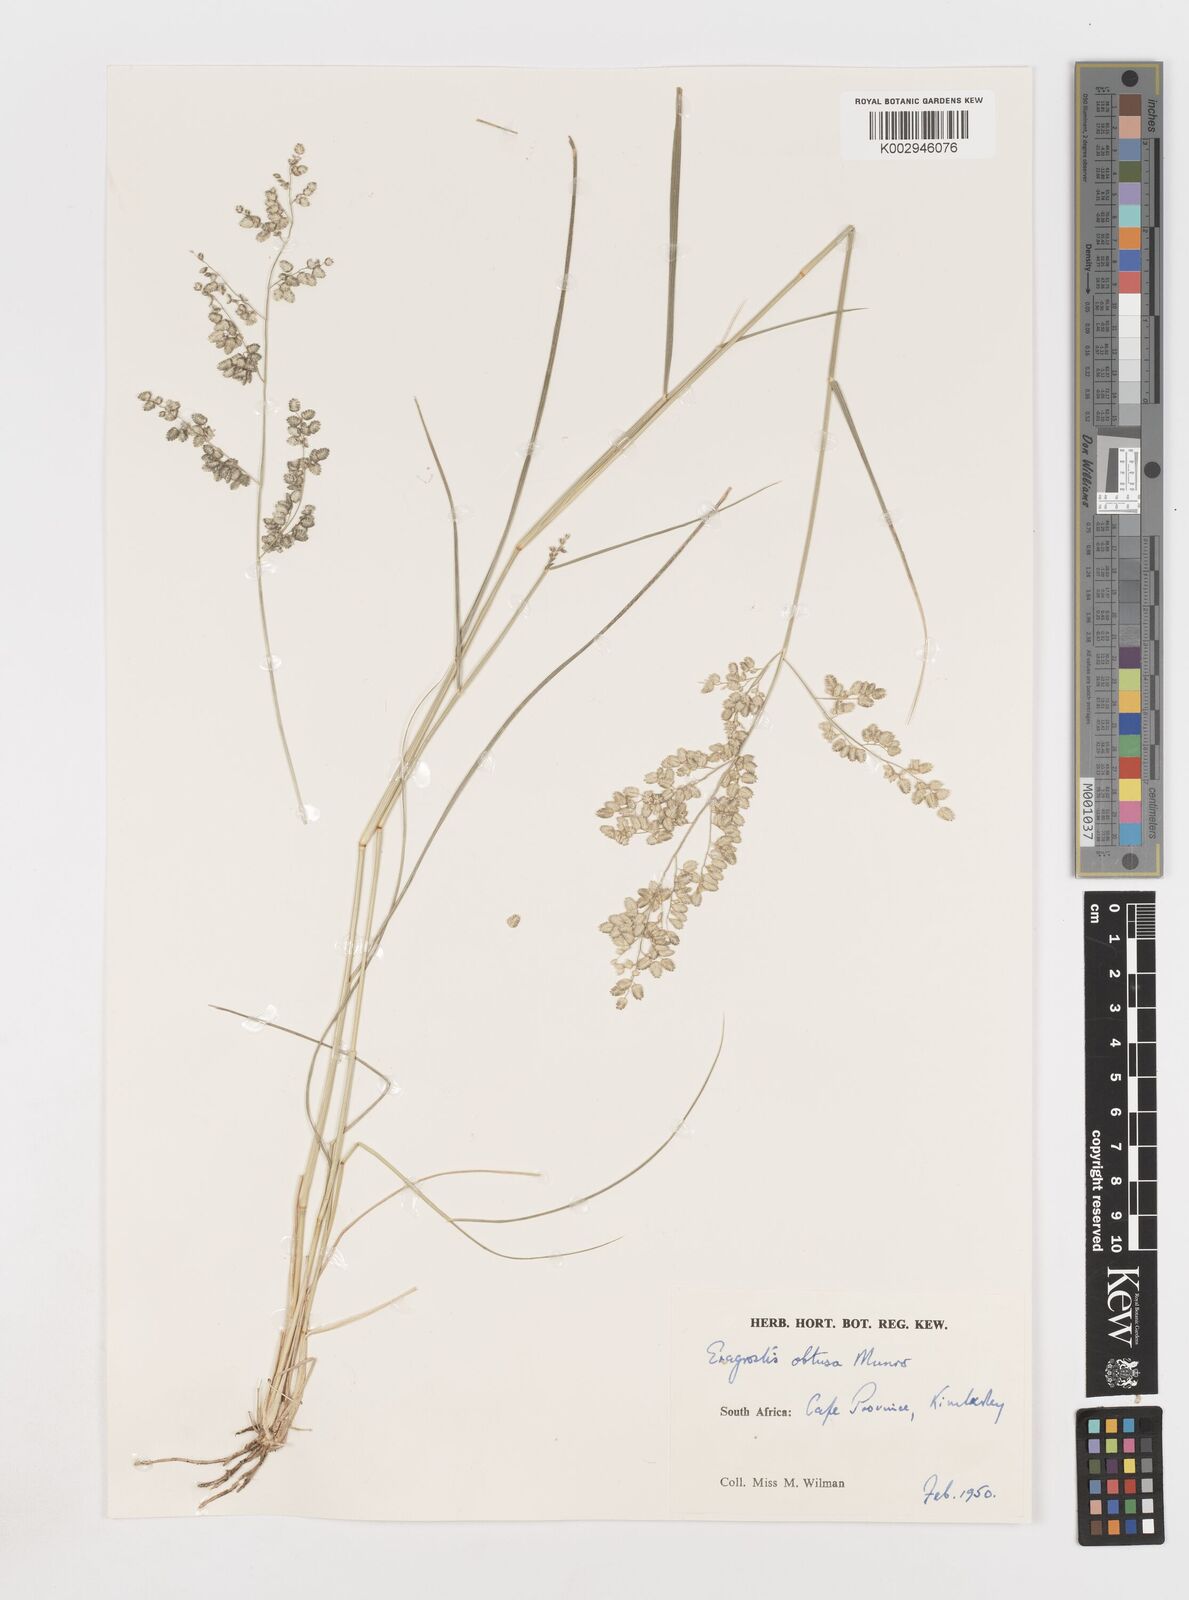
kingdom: Plantae
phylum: Tracheophyta
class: Liliopsida
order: Poales
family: Poaceae
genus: Eragrostis
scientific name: Eragrostis obtusa
